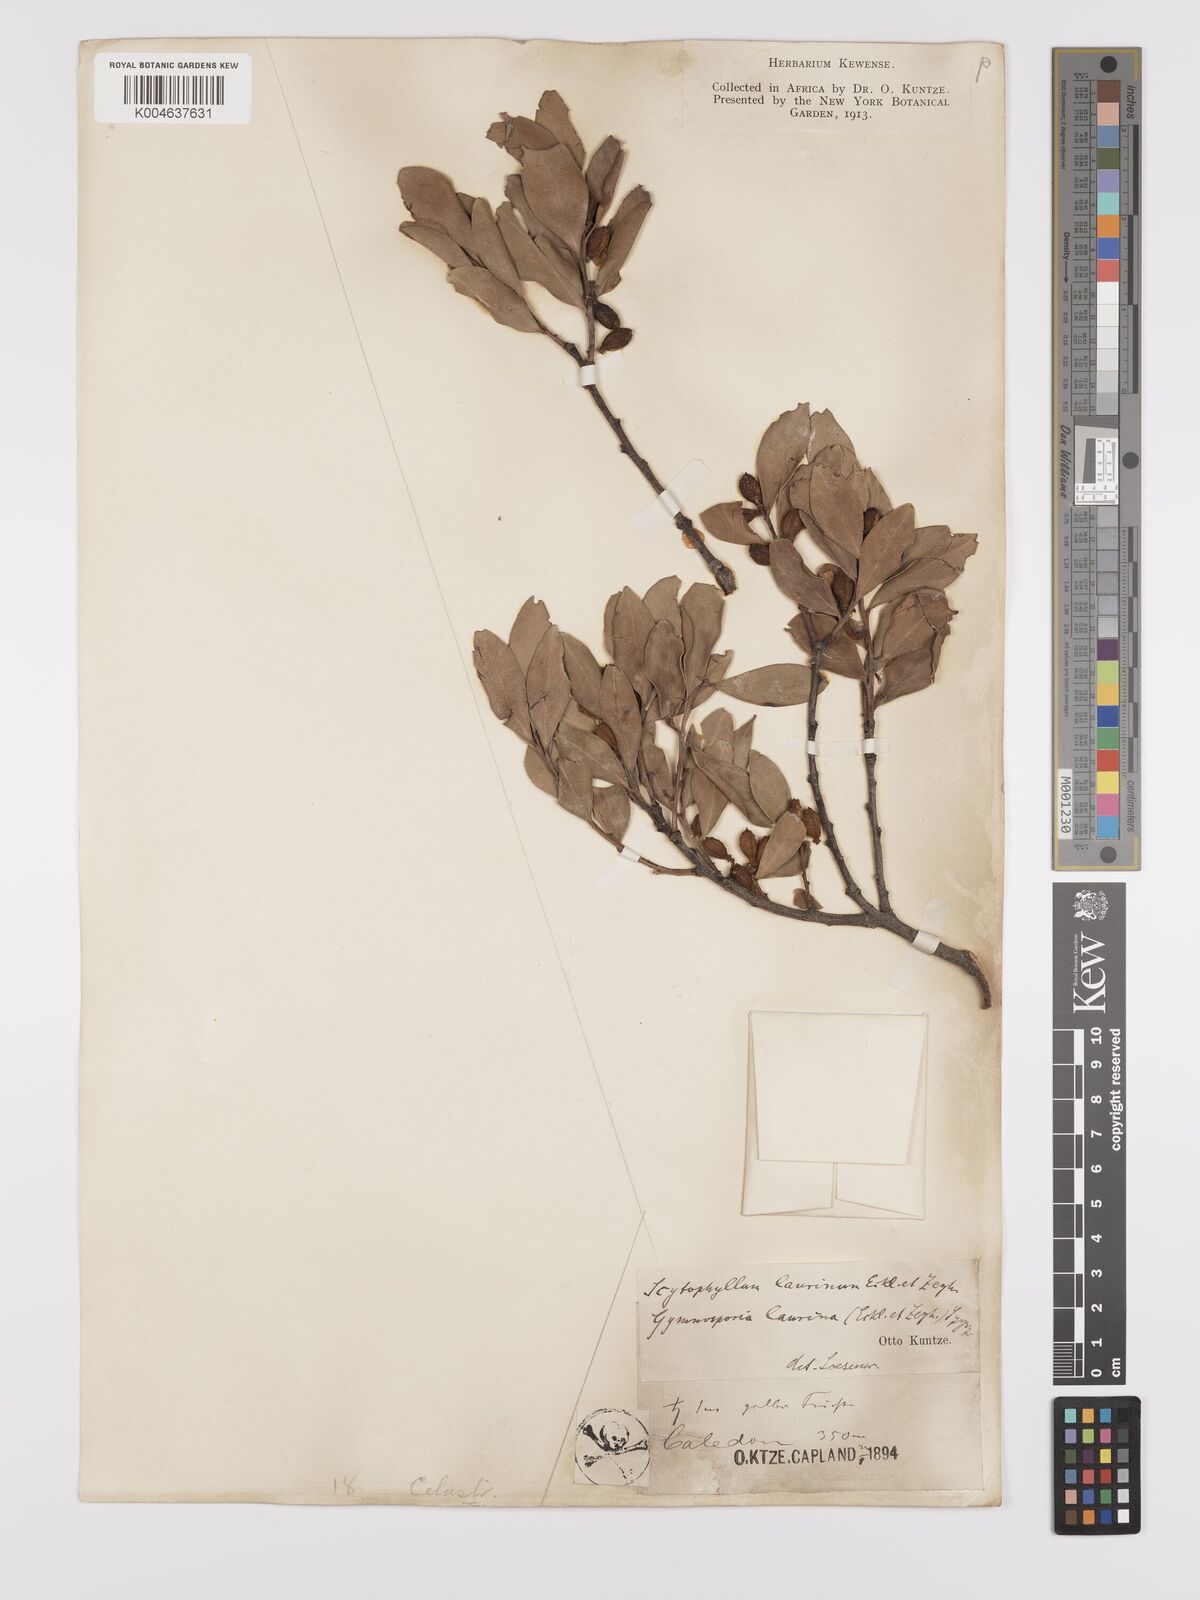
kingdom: Plantae
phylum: Tracheophyta
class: Magnoliopsida
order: Celastrales
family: Celastraceae
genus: Gymnosporia
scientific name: Gymnosporia laurina
